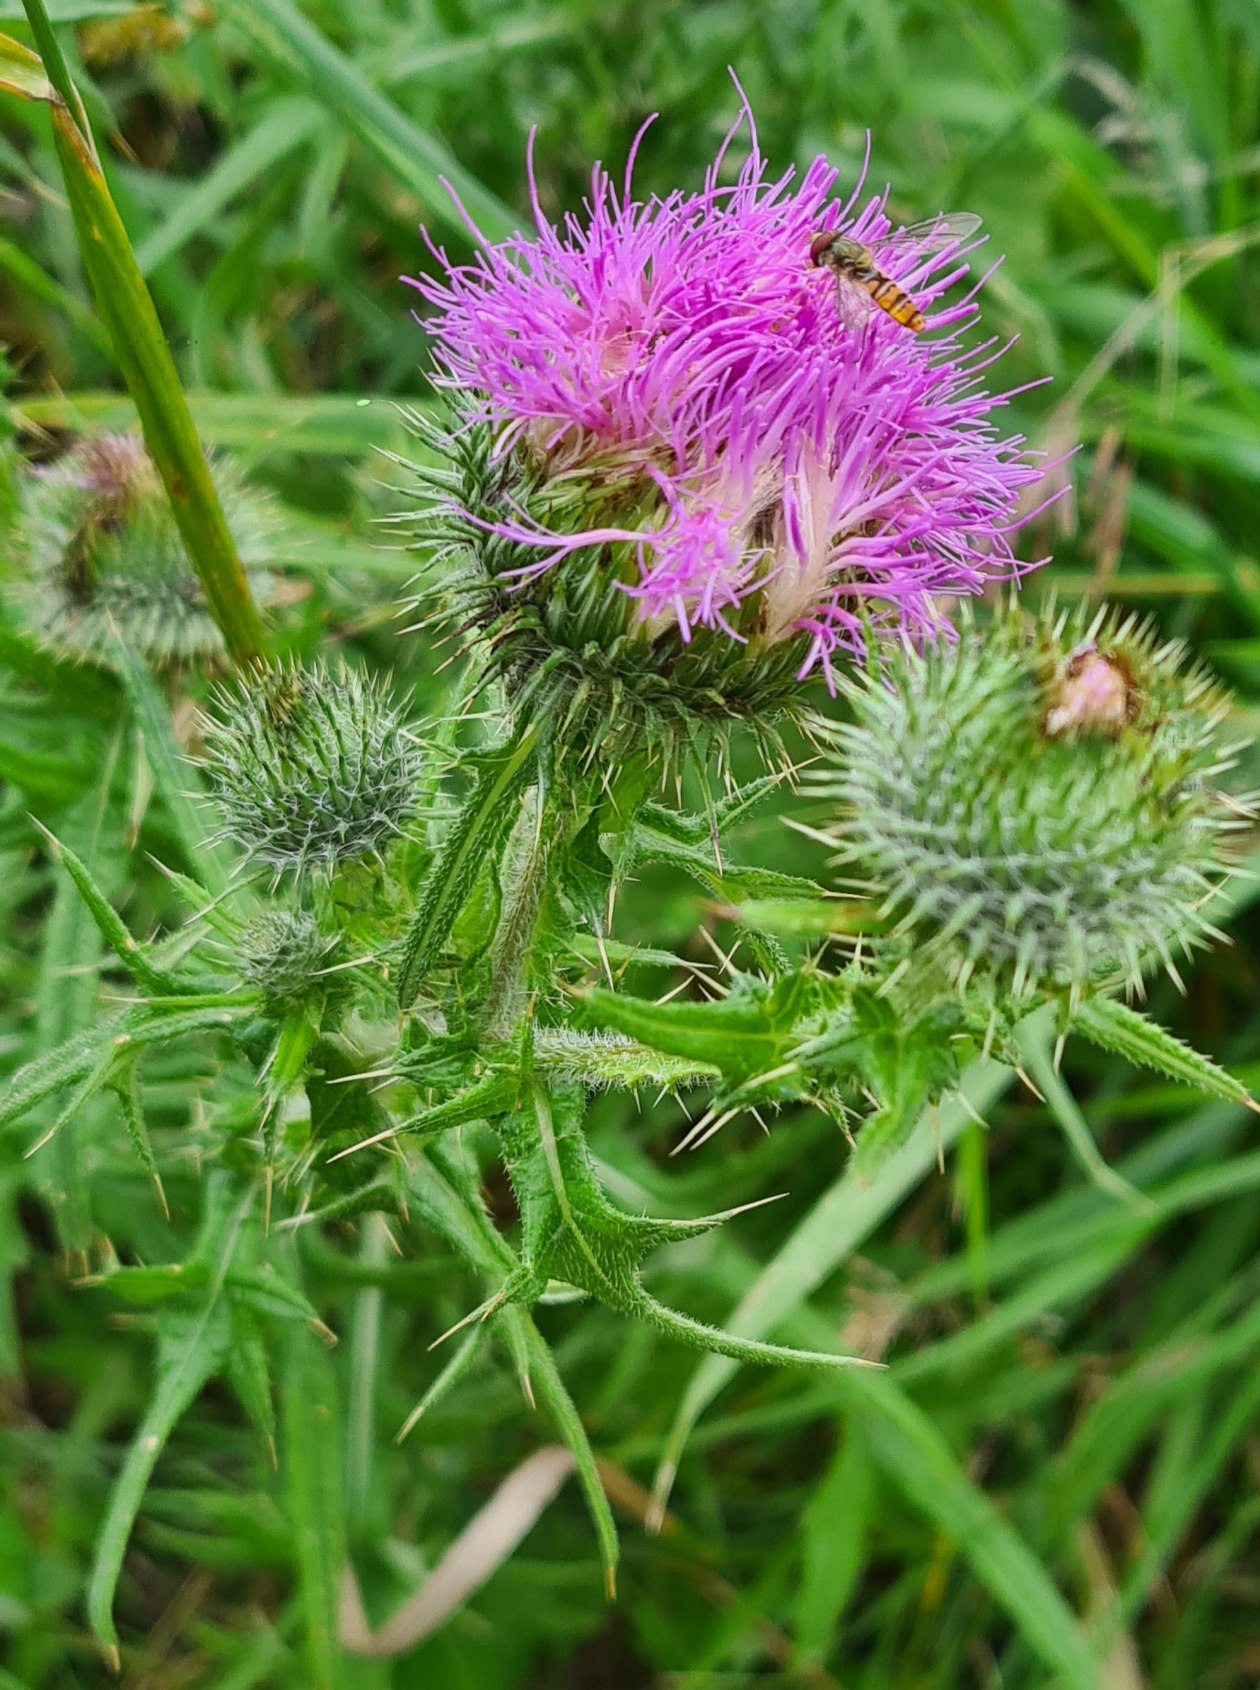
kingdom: Plantae
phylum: Tracheophyta
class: Magnoliopsida
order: Asterales
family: Asteraceae
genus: Cirsium
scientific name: Cirsium vulgare
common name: Horse-tidsel
